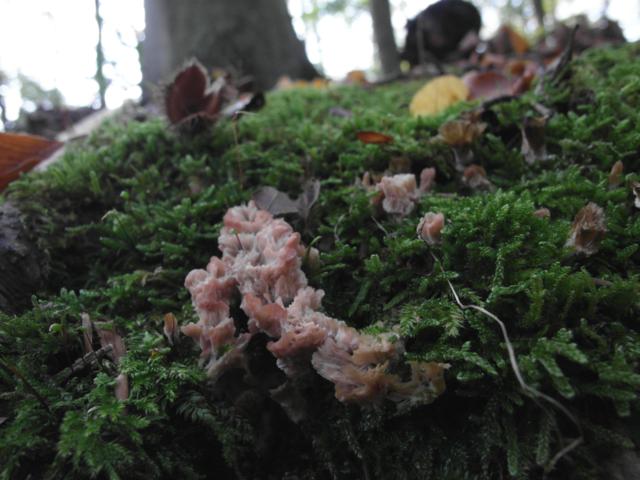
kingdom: Fungi
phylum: Basidiomycota
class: Agaricomycetes
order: Hymenochaetales
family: Rickenellaceae
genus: Cotylidia
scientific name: Cotylidia pannosa
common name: vifte-navlesvamp
